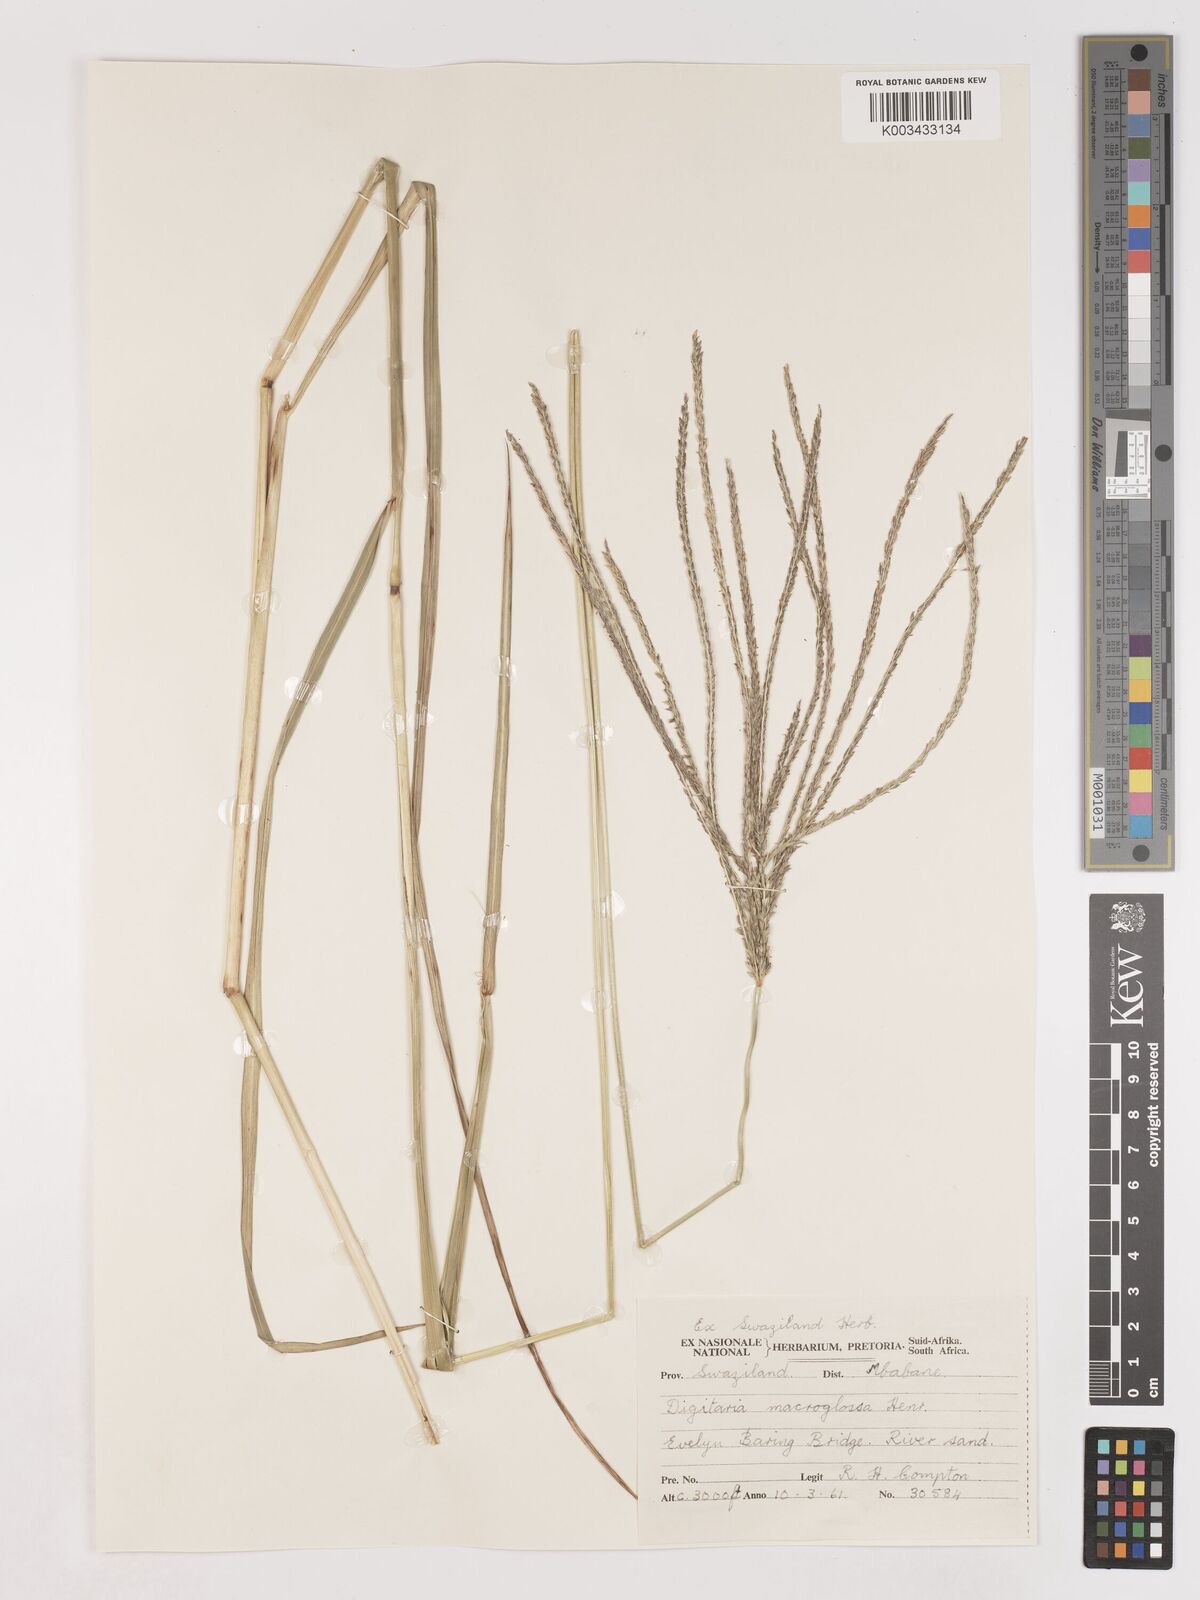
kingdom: Plantae
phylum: Tracheophyta
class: Liliopsida
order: Poales
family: Poaceae
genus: Digitaria
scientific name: Digitaria natalensis
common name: Coast finger grass
